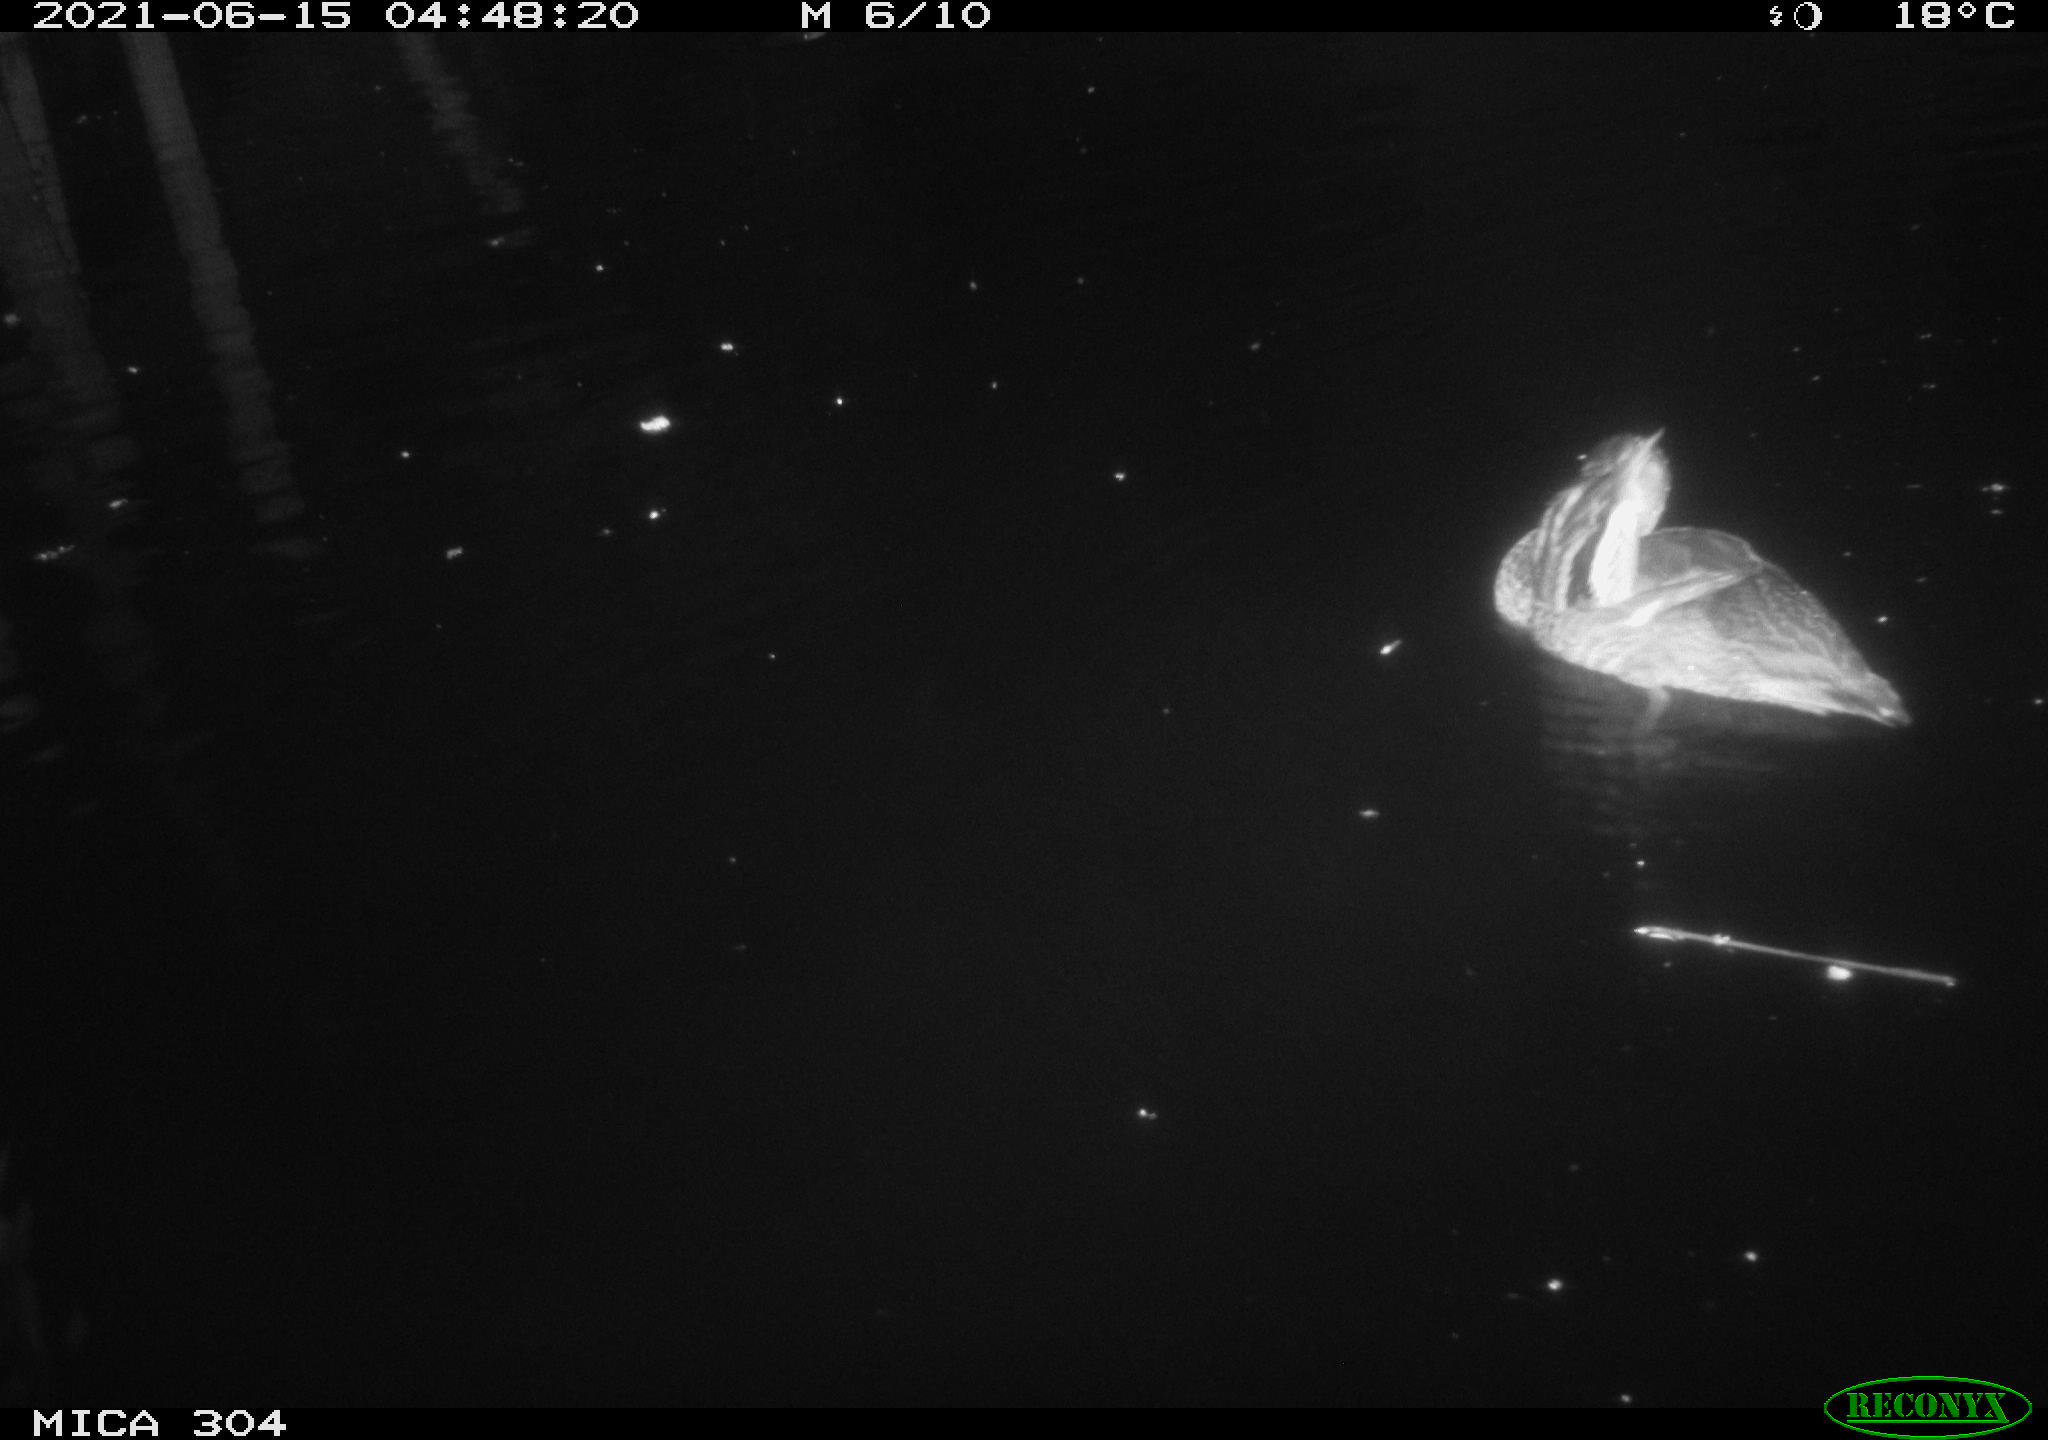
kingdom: Animalia
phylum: Chordata
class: Aves
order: Anseriformes
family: Anatidae
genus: Anas
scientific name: Anas platyrhynchos
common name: Mallard
